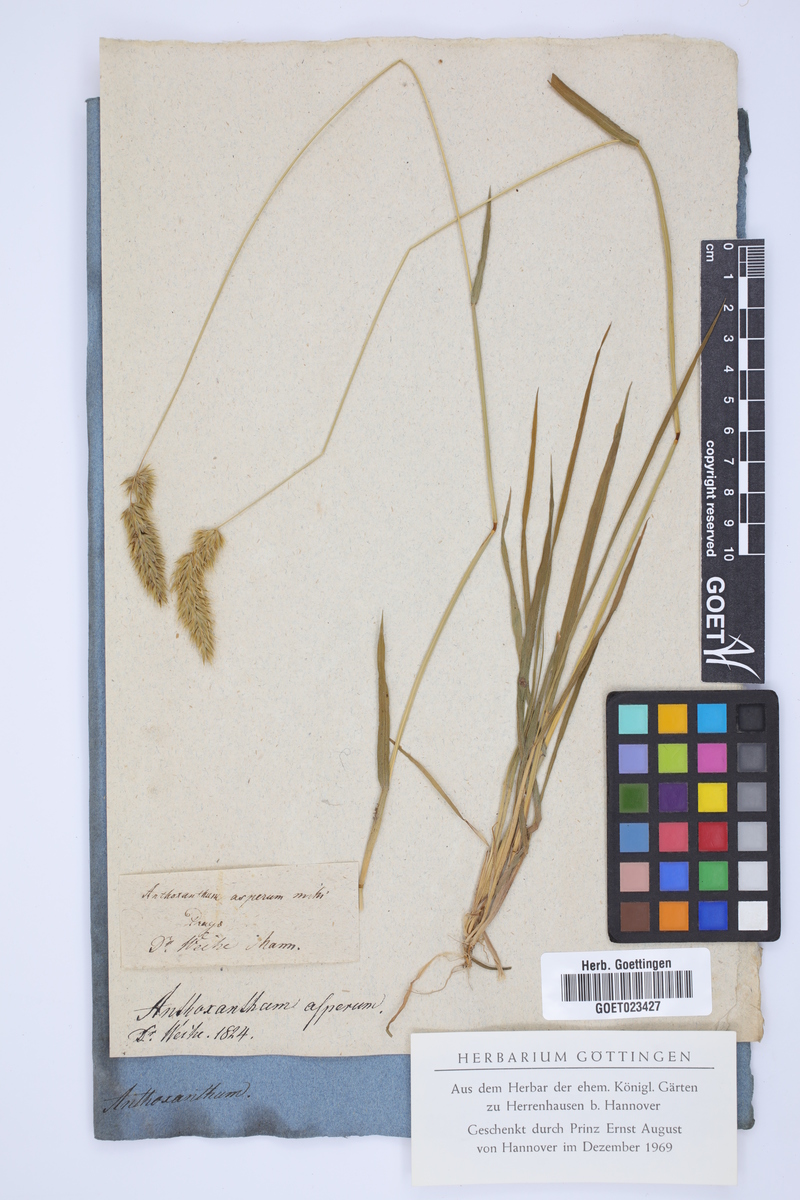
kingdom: Plantae
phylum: Tracheophyta
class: Liliopsida
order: Poales
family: Poaceae
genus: Anthoxanthum
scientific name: Anthoxanthum odoratum
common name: Sweet vernalgrass
